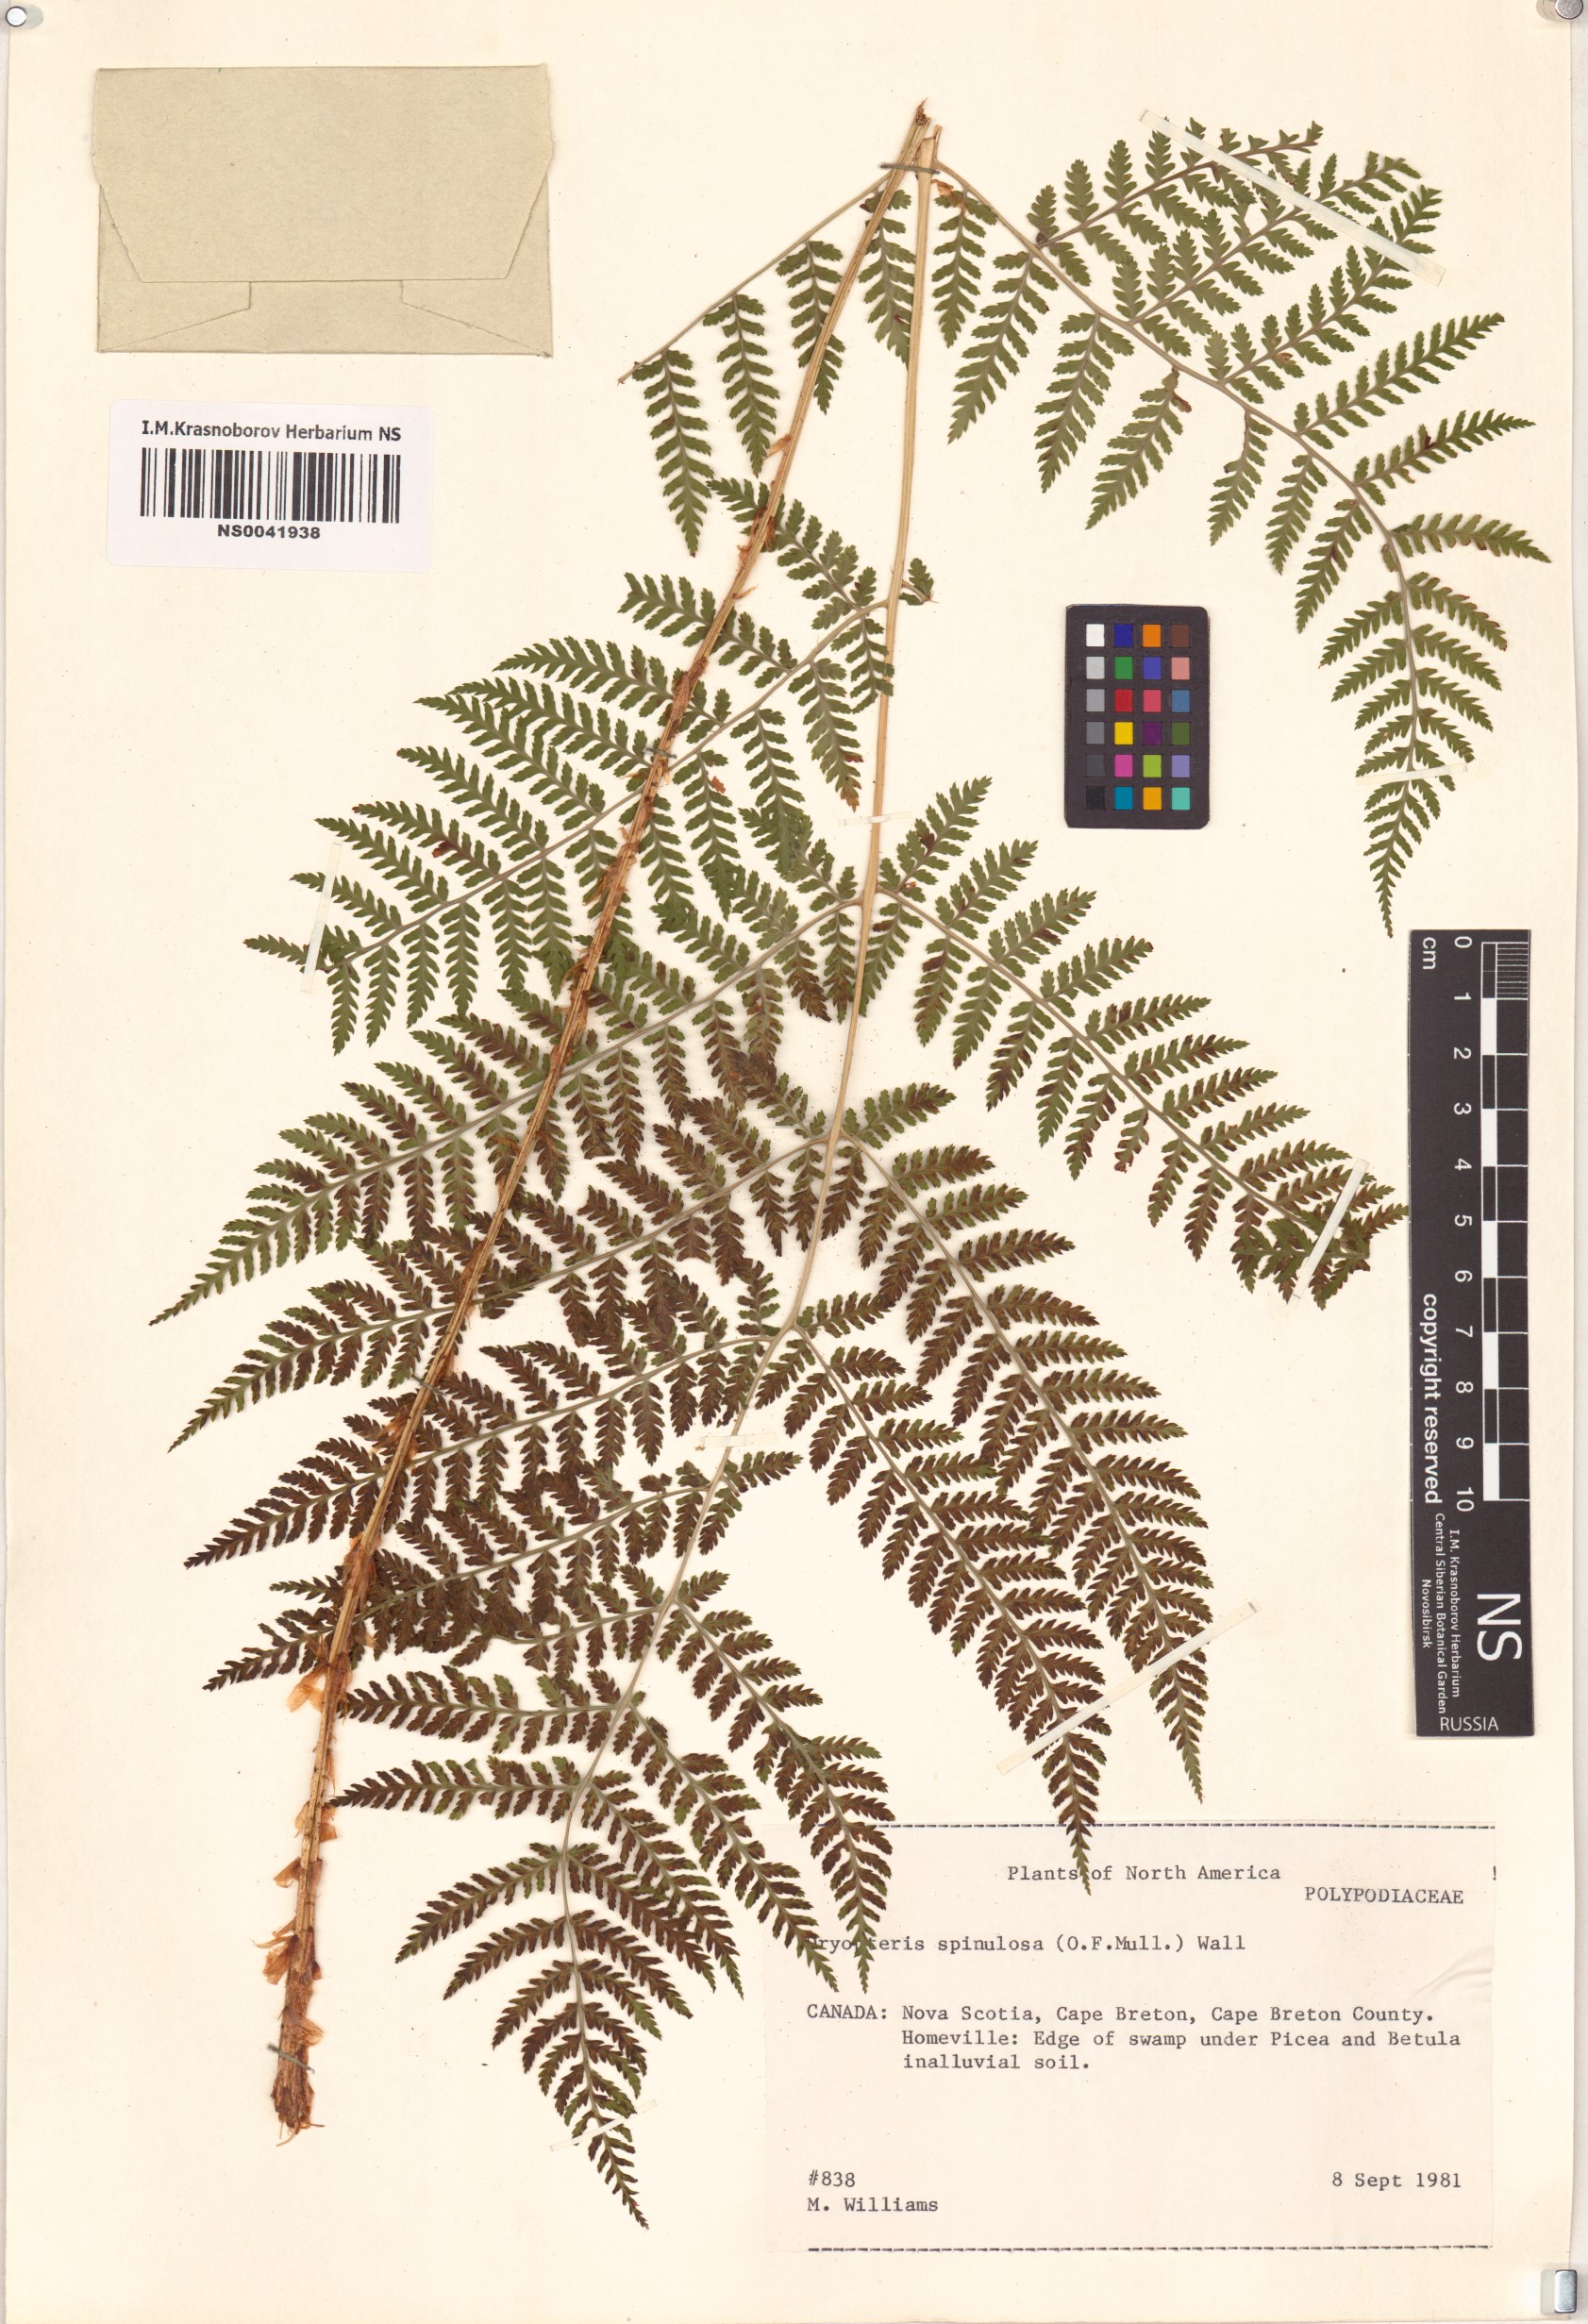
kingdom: Plantae
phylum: Tracheophyta
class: Polypodiopsida
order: Polypodiales
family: Dryopteridaceae
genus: Dryopteris
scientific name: Dryopteris carthusiana
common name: Narrow buckler-fern
